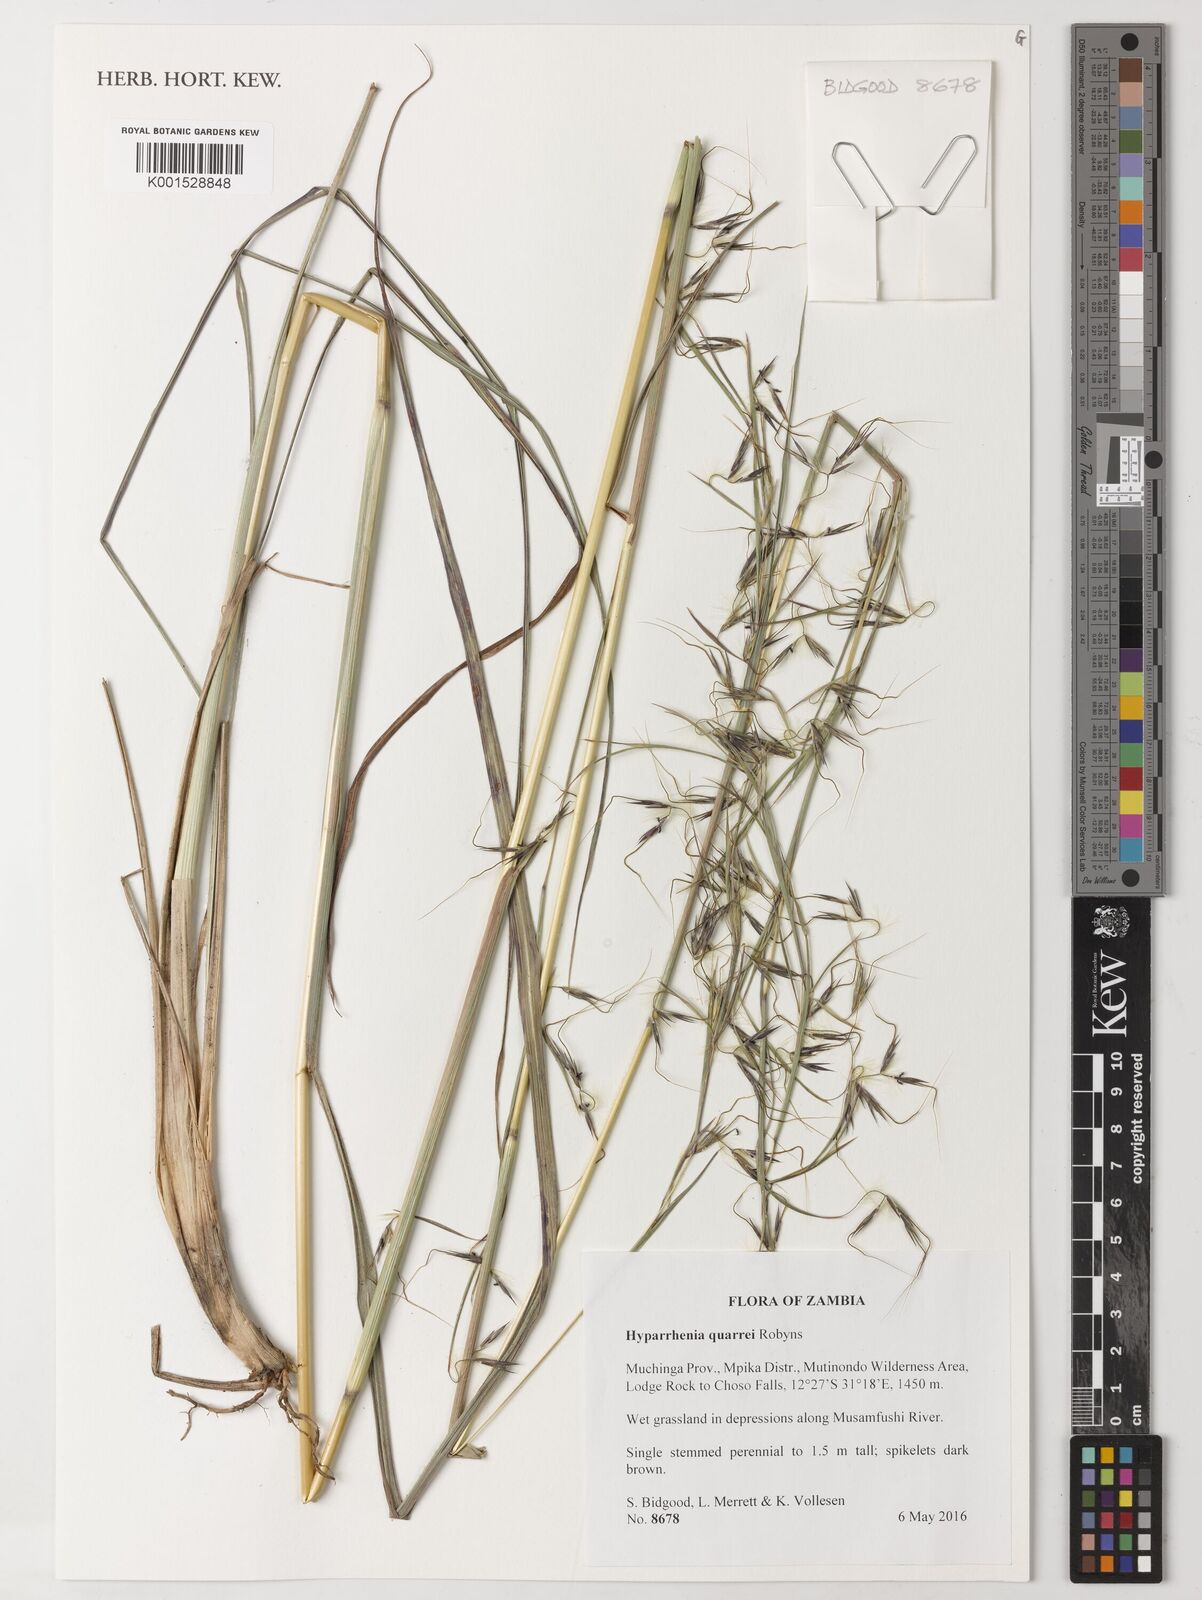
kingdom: Plantae
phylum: Tracheophyta
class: Liliopsida
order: Poales
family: Poaceae
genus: Hyparrhenia
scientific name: Hyparrhenia quarrei
